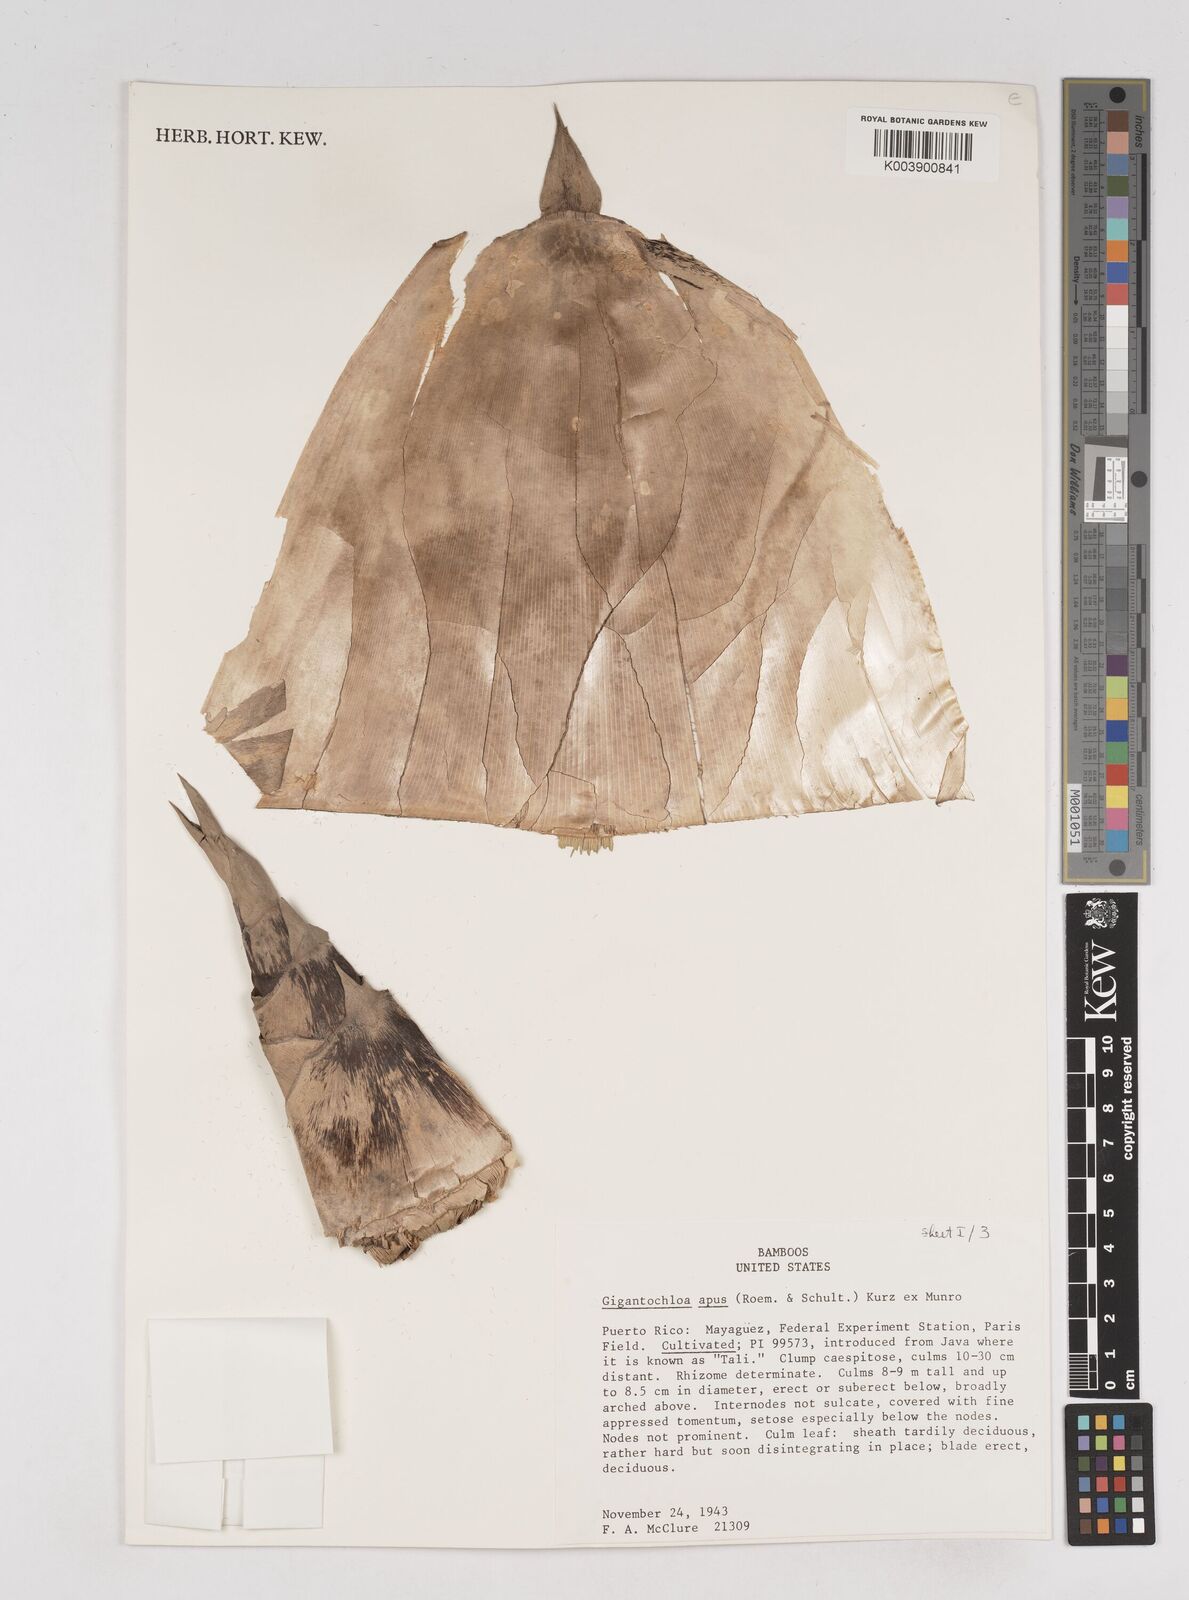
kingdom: Plantae
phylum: Tracheophyta
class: Liliopsida
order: Poales
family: Poaceae
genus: Gigantochloa
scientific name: Gigantochloa apus
